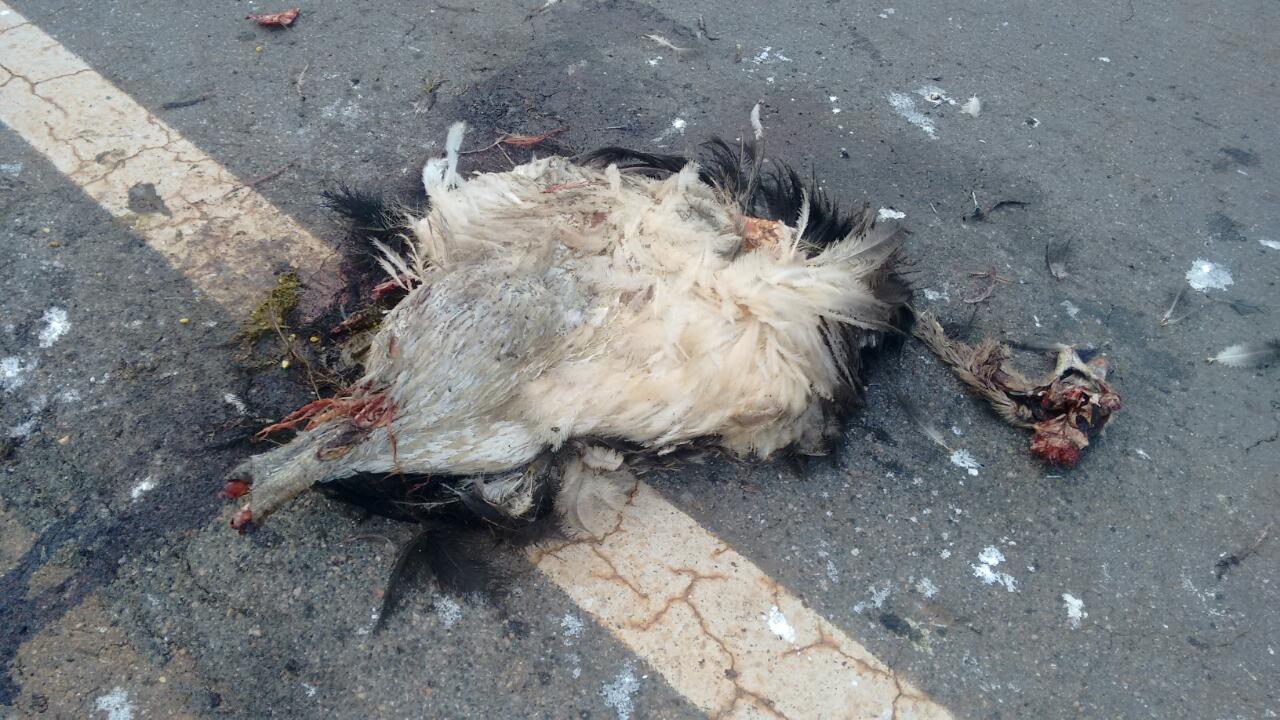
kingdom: Animalia
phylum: Chordata
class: Aves
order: Rheiformes
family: Rheidae
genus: Rhea
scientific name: Rhea americana
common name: Greater rhea
